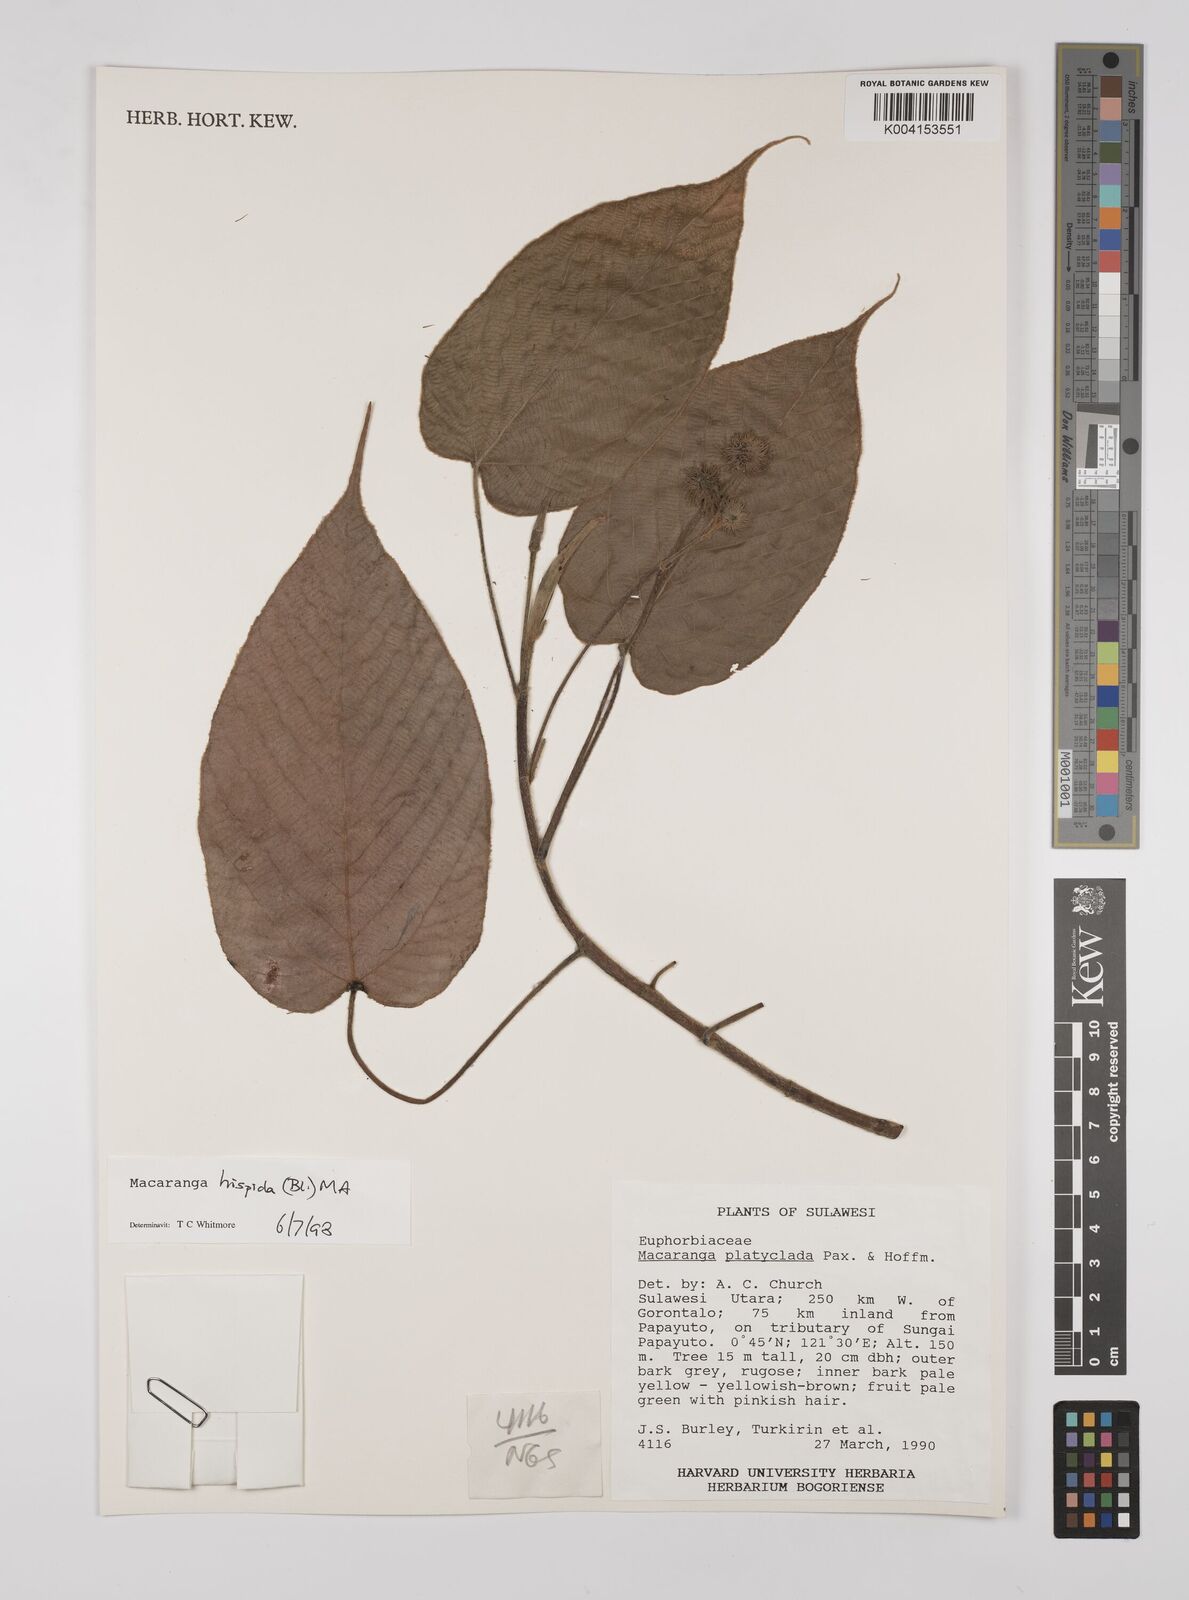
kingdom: Plantae
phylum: Tracheophyta
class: Magnoliopsida
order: Malpighiales
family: Euphorbiaceae
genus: Macaranga
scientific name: Macaranga hispida
